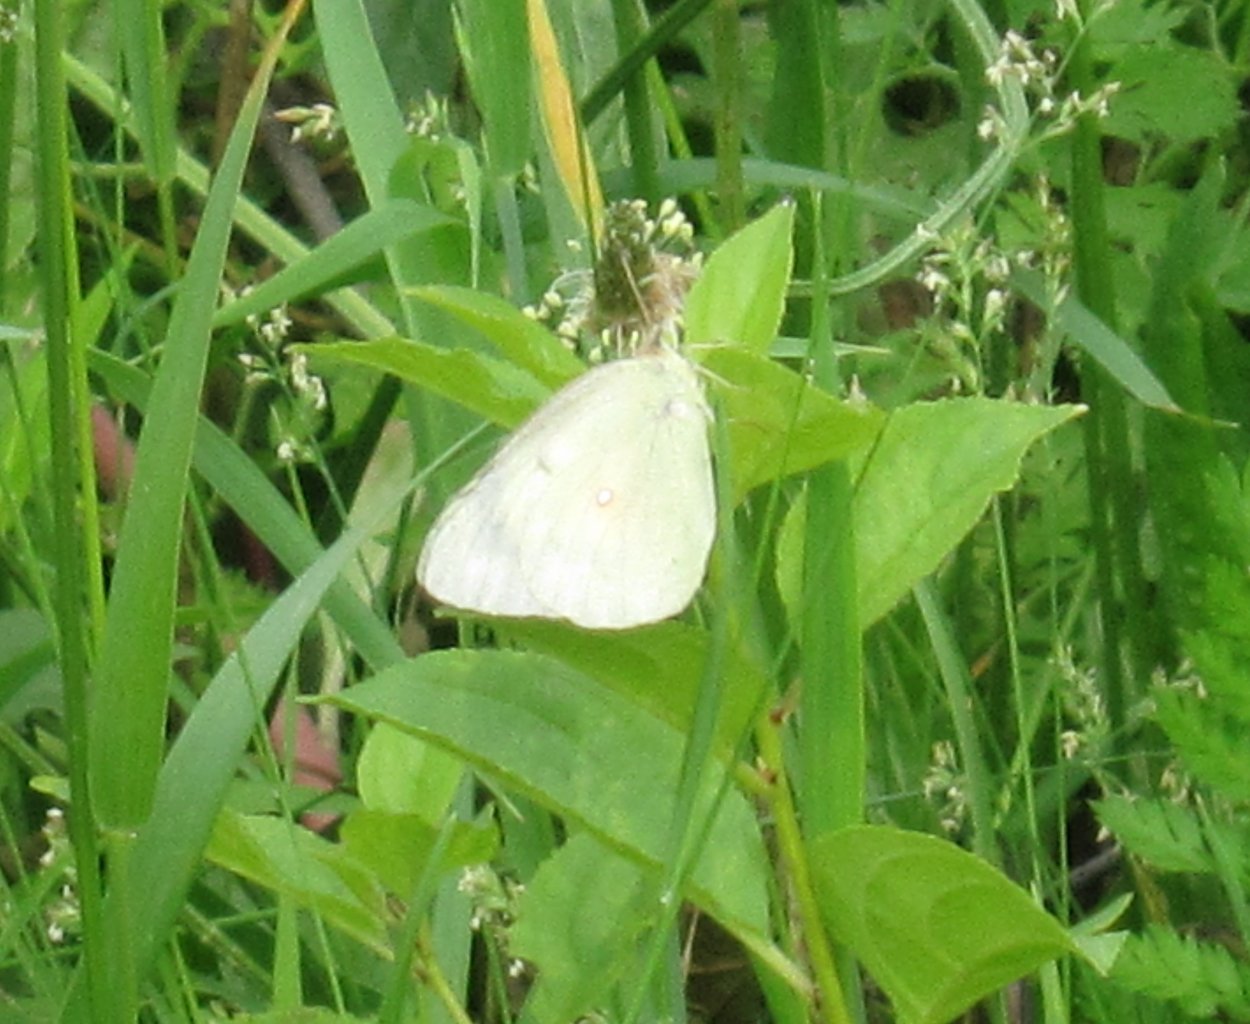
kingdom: Animalia
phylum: Arthropoda
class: Insecta
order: Lepidoptera
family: Pieridae
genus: Colias
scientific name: Colias
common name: Clouded Yellows
